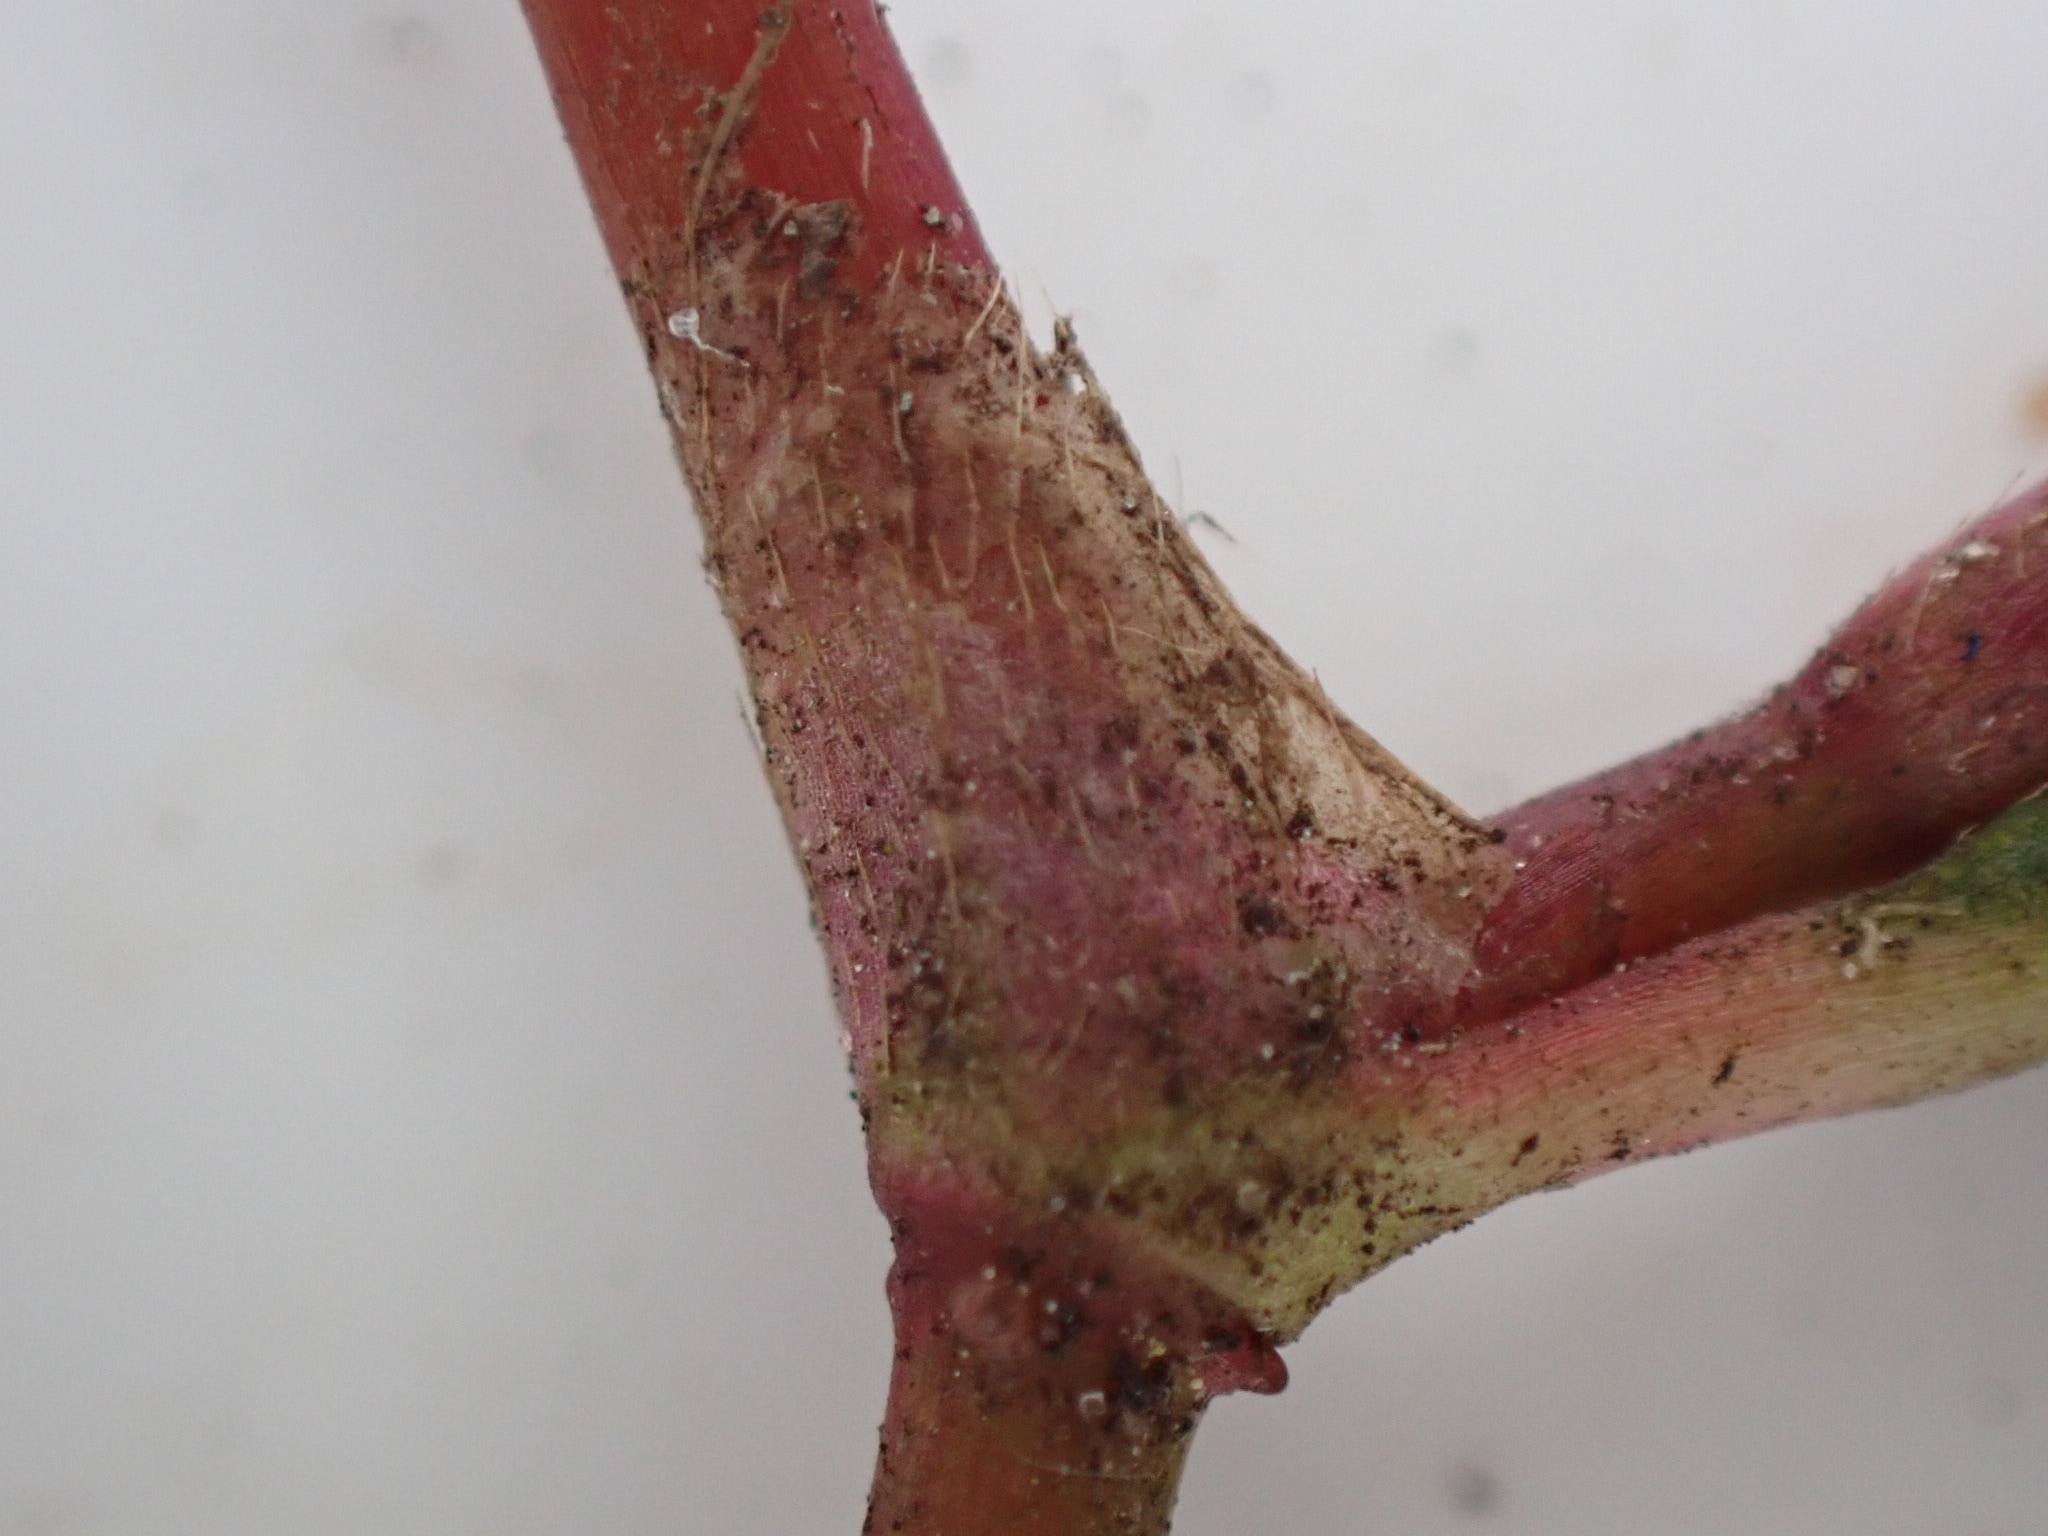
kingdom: Plantae
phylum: Tracheophyta
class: Magnoliopsida
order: Caryophyllales
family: Polygonaceae
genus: Persicaria
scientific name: Persicaria minor
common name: Liden pileurt
